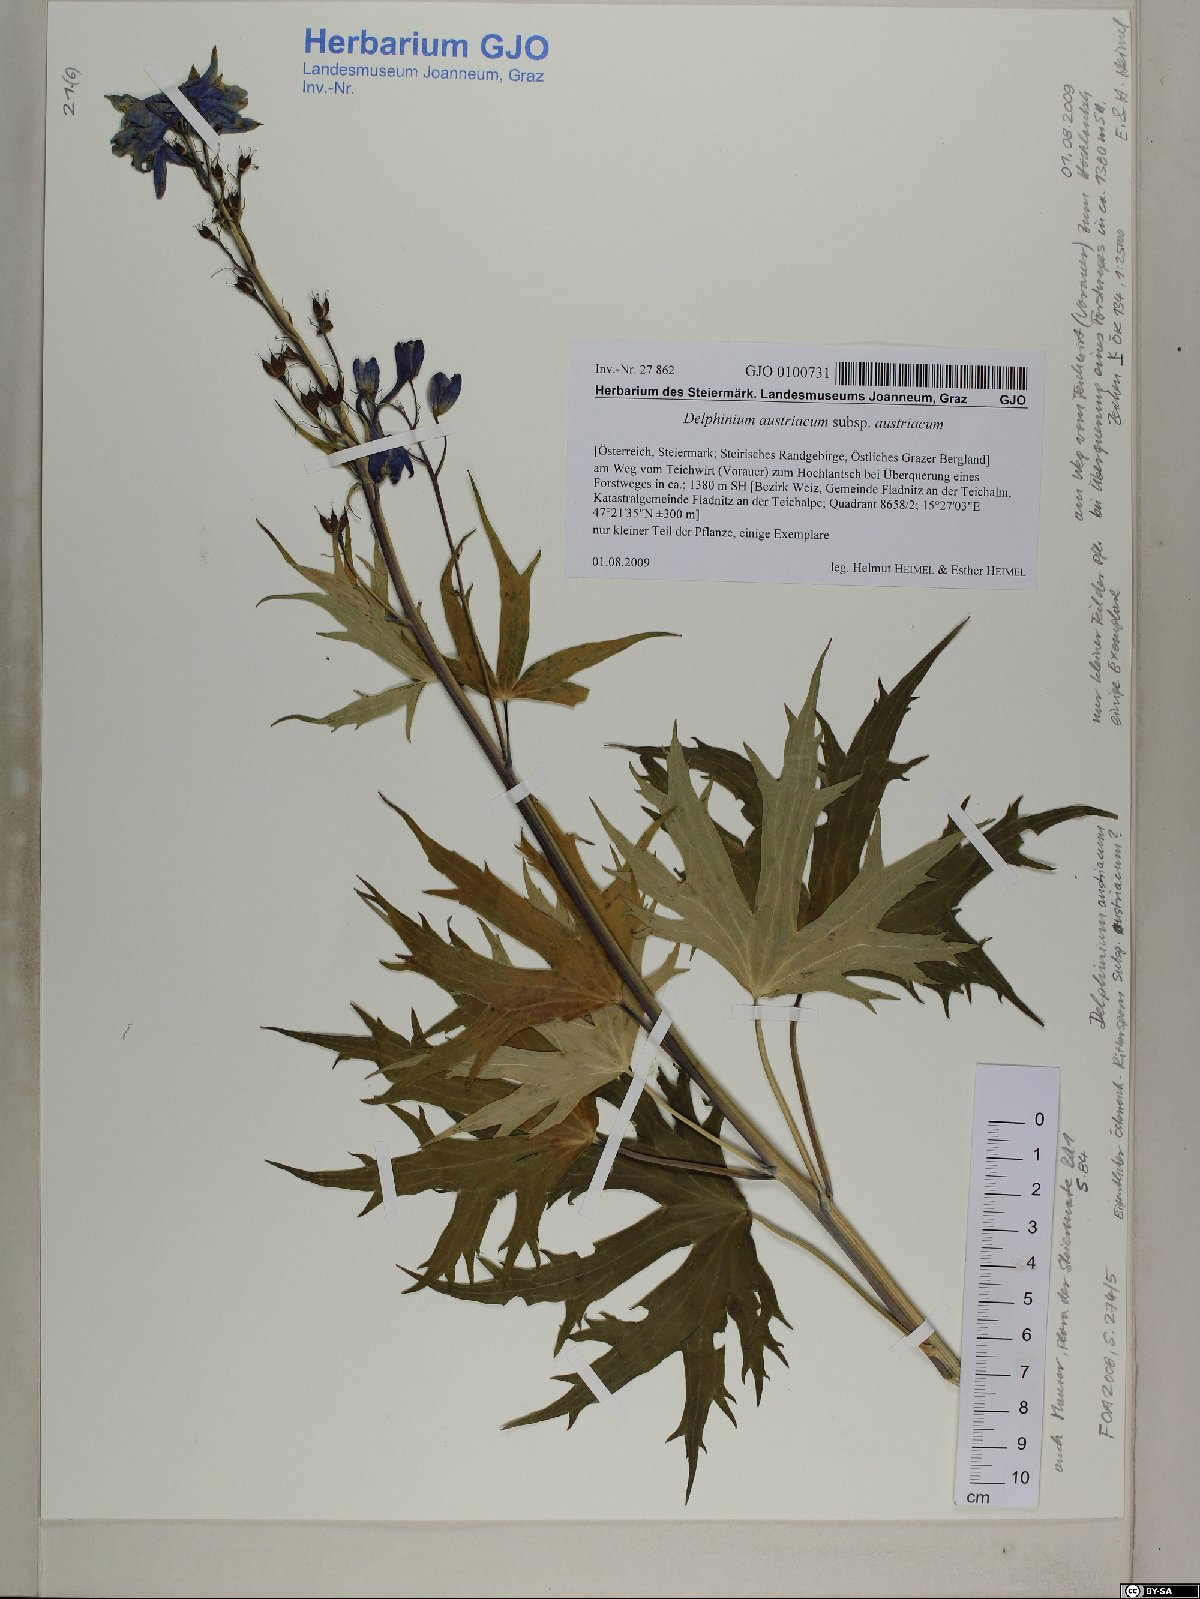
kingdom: Plantae
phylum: Tracheophyta
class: Magnoliopsida
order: Ranunculales
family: Ranunculaceae
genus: Delphinium
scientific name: Delphinium austriacum
